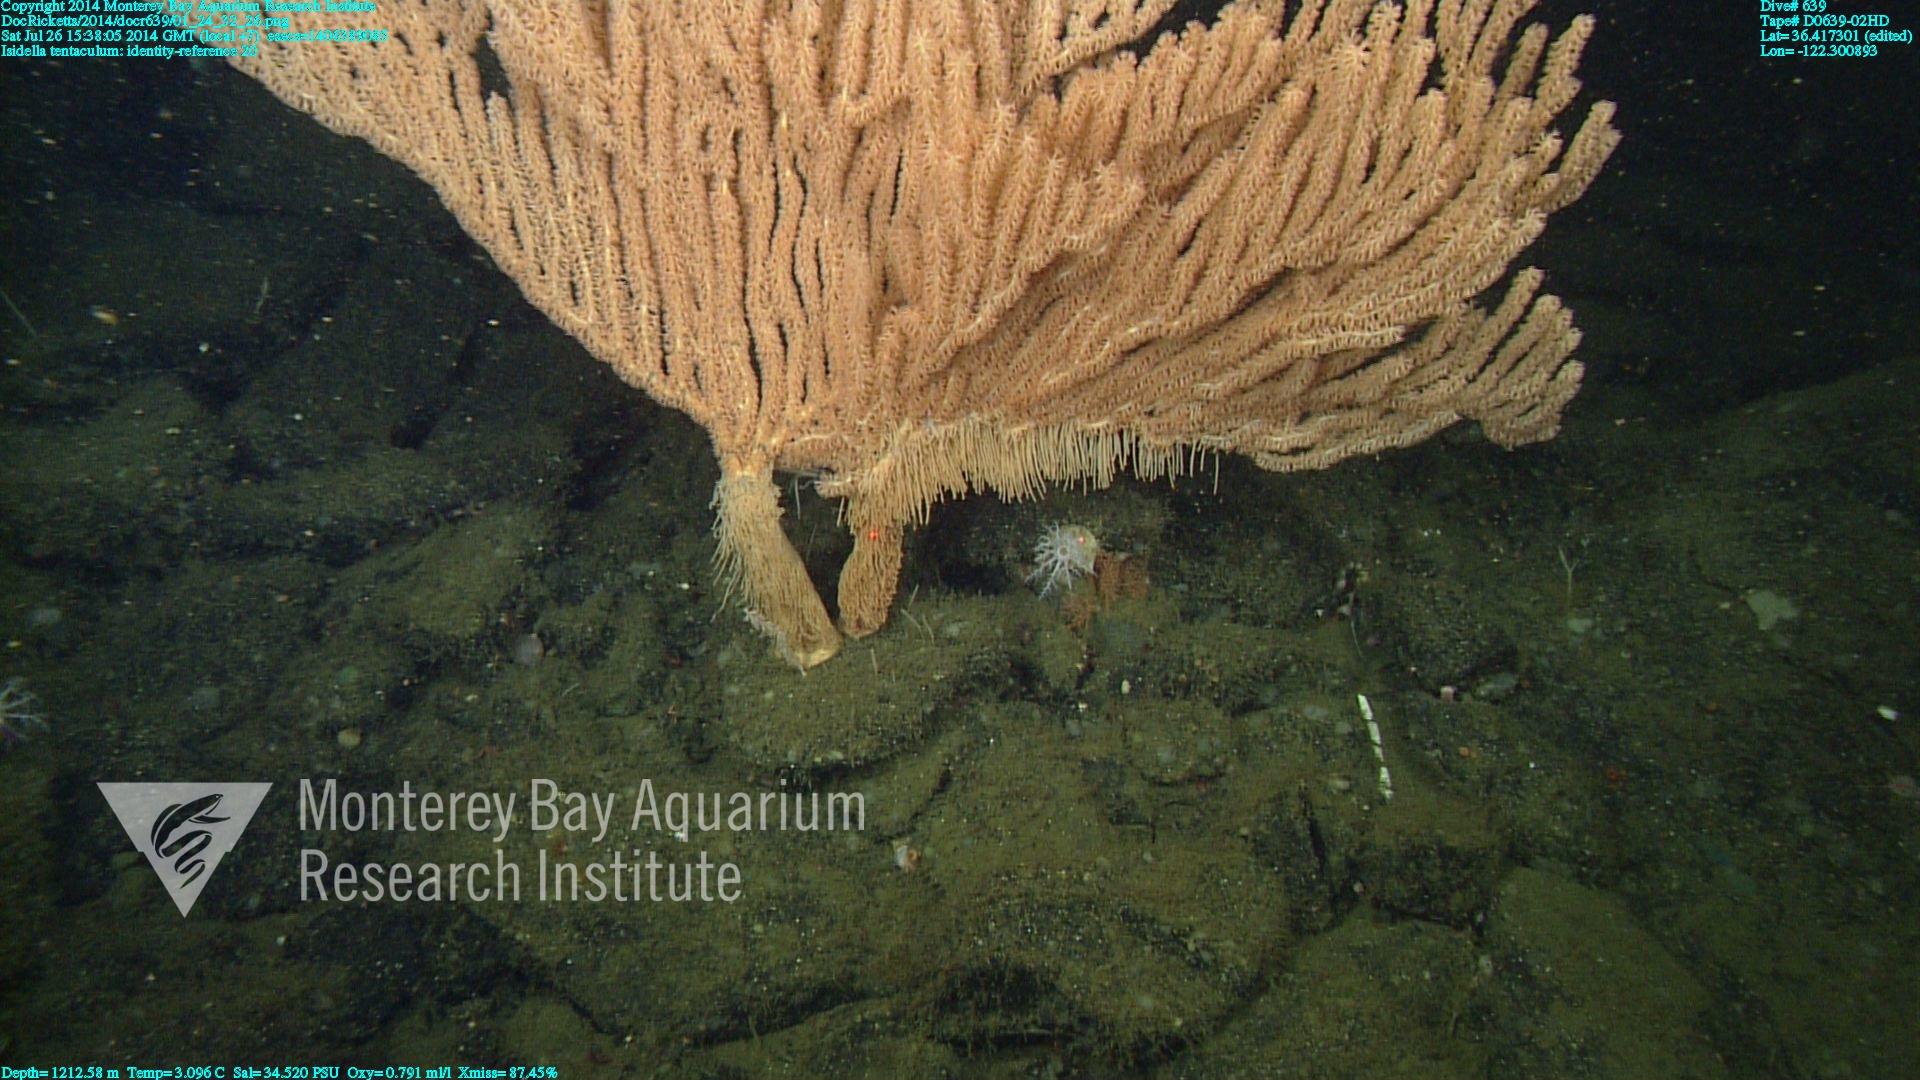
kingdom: Animalia
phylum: Cnidaria
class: Anthozoa
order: Scleralcyonacea
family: Keratoisididae
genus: Isidella
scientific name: Isidella tentaculum
